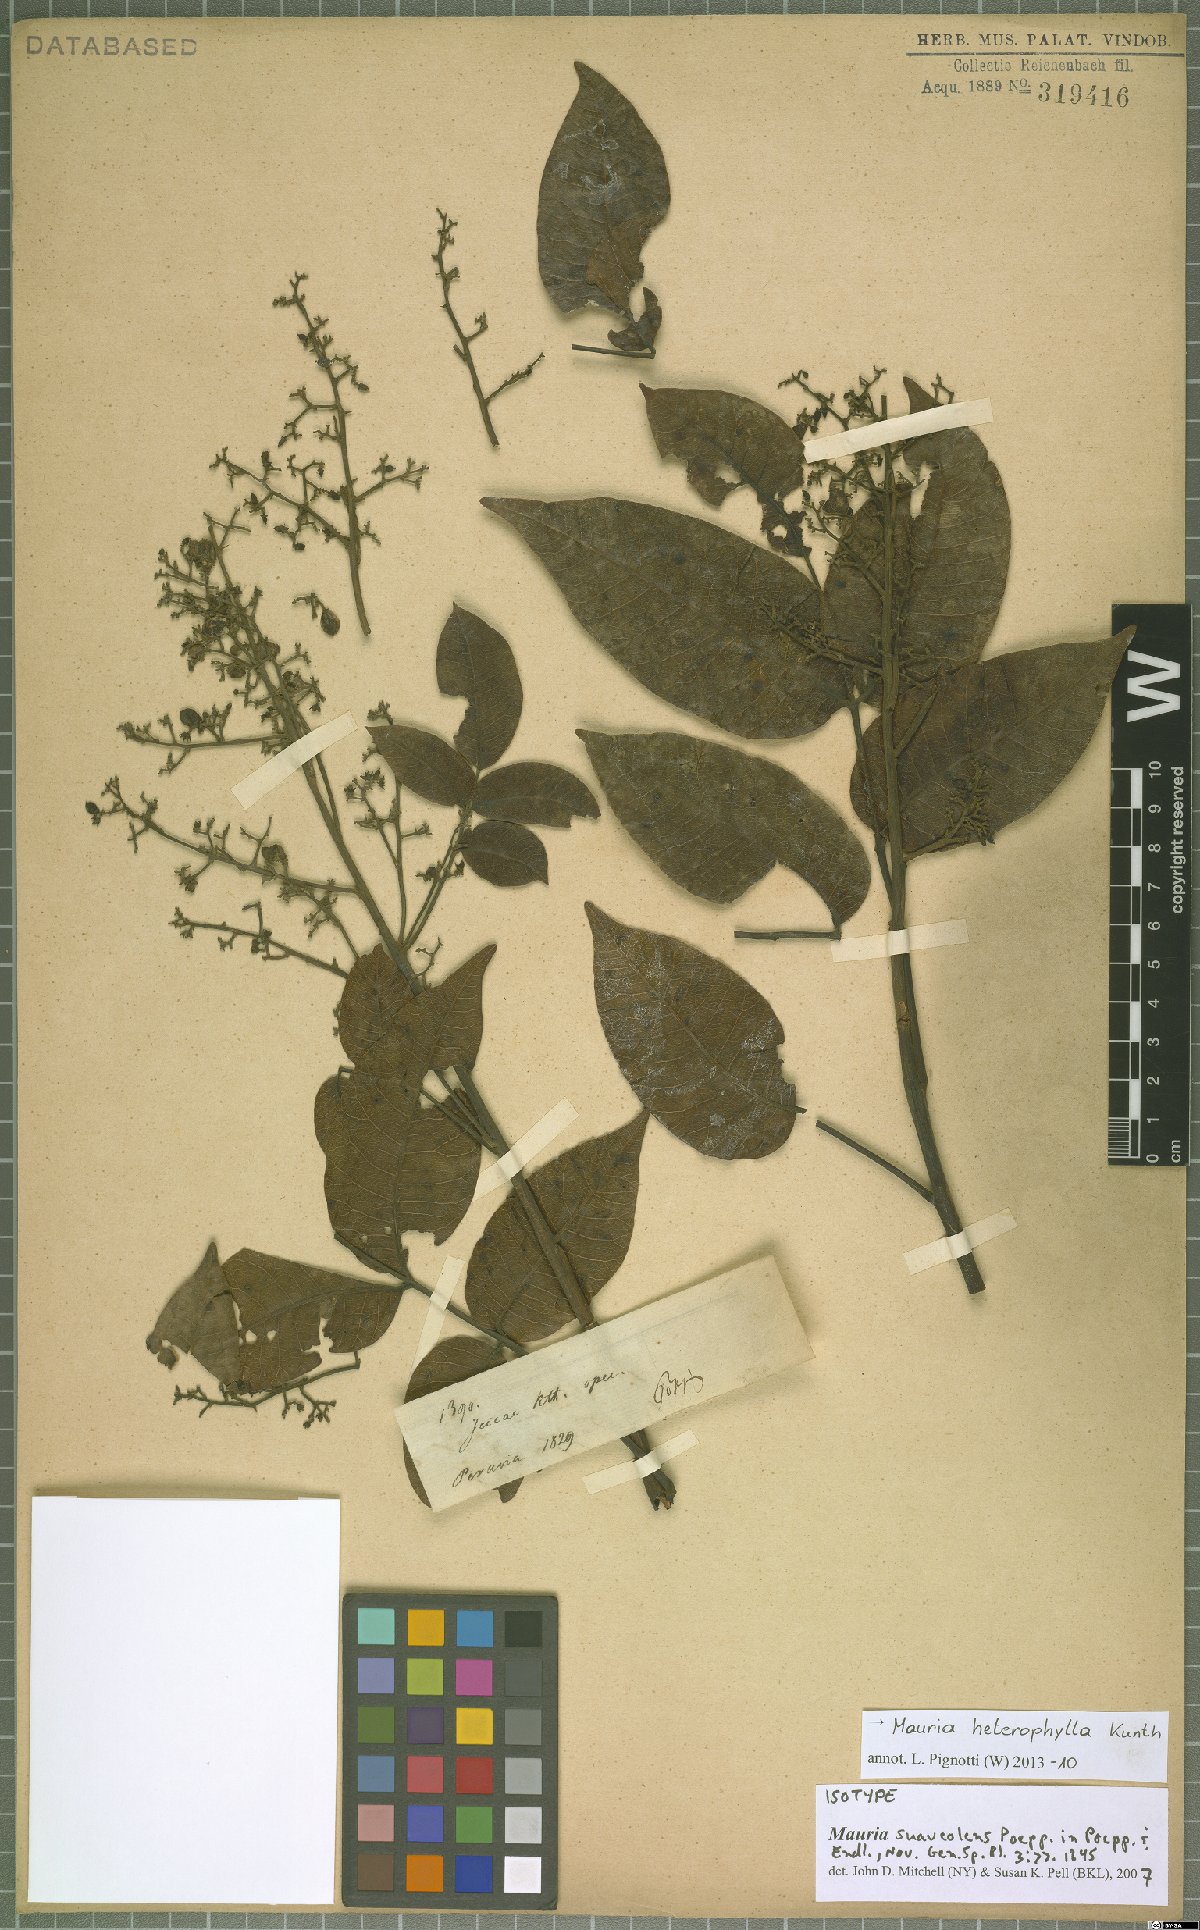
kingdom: Plantae
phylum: Tracheophyta
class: Magnoliopsida
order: Sapindales
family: Anacardiaceae
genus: Mauria
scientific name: Mauria heterophylla
